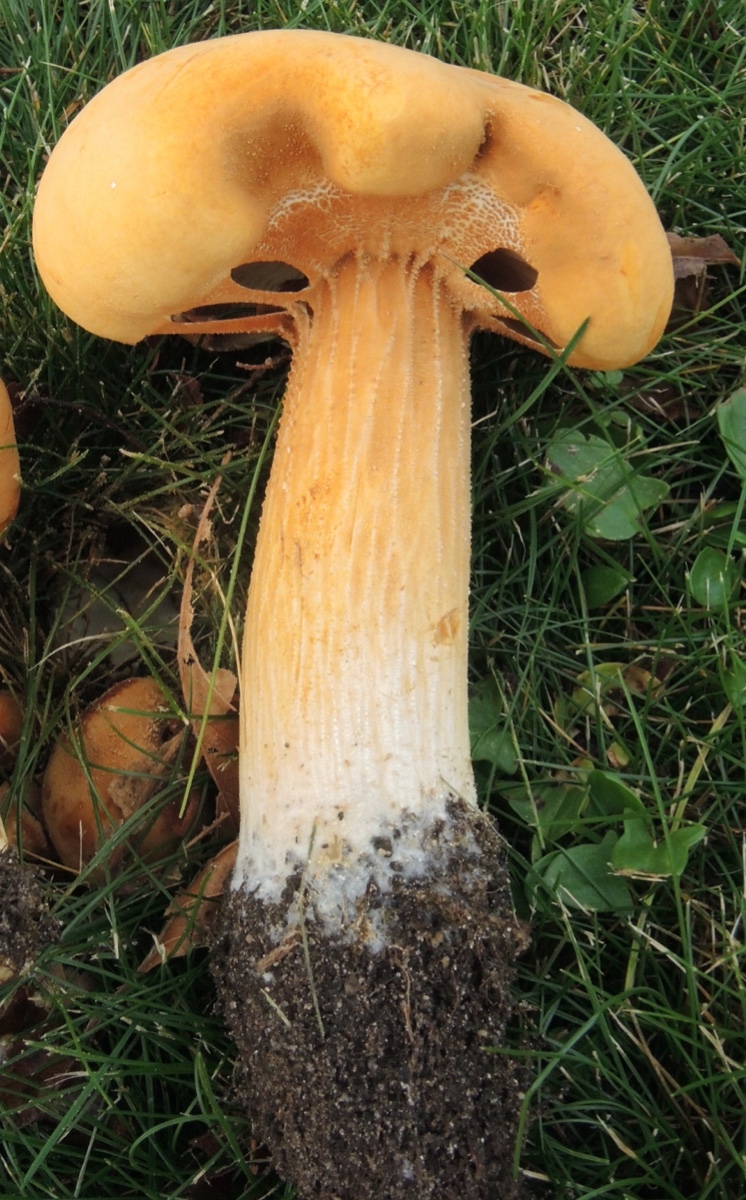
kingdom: Fungi
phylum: Basidiomycota
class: Agaricomycetes
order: Agaricales
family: Tricholomataceae
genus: Phaeolepiota
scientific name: Phaeolepiota aurea
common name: gyldenhat
